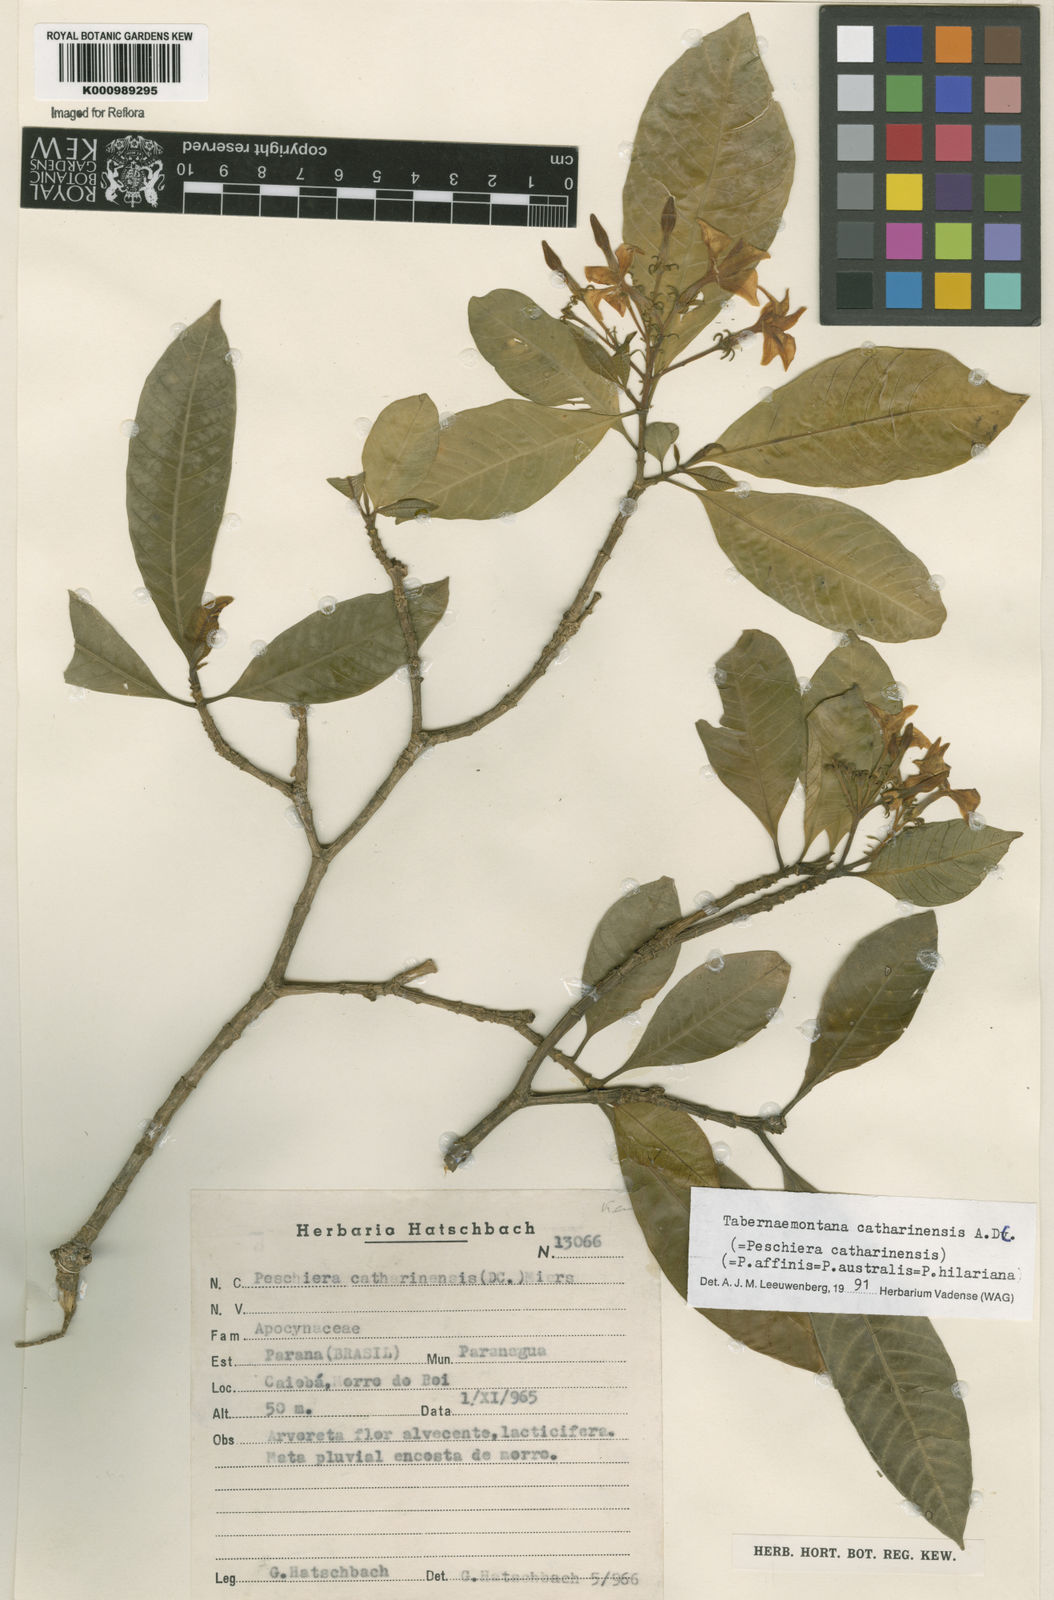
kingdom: Plantae
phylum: Tracheophyta
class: Magnoliopsida
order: Gentianales
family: Apocynaceae
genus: Tabernaemontana
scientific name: Tabernaemontana catharinensis
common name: Pinwheel-flower
